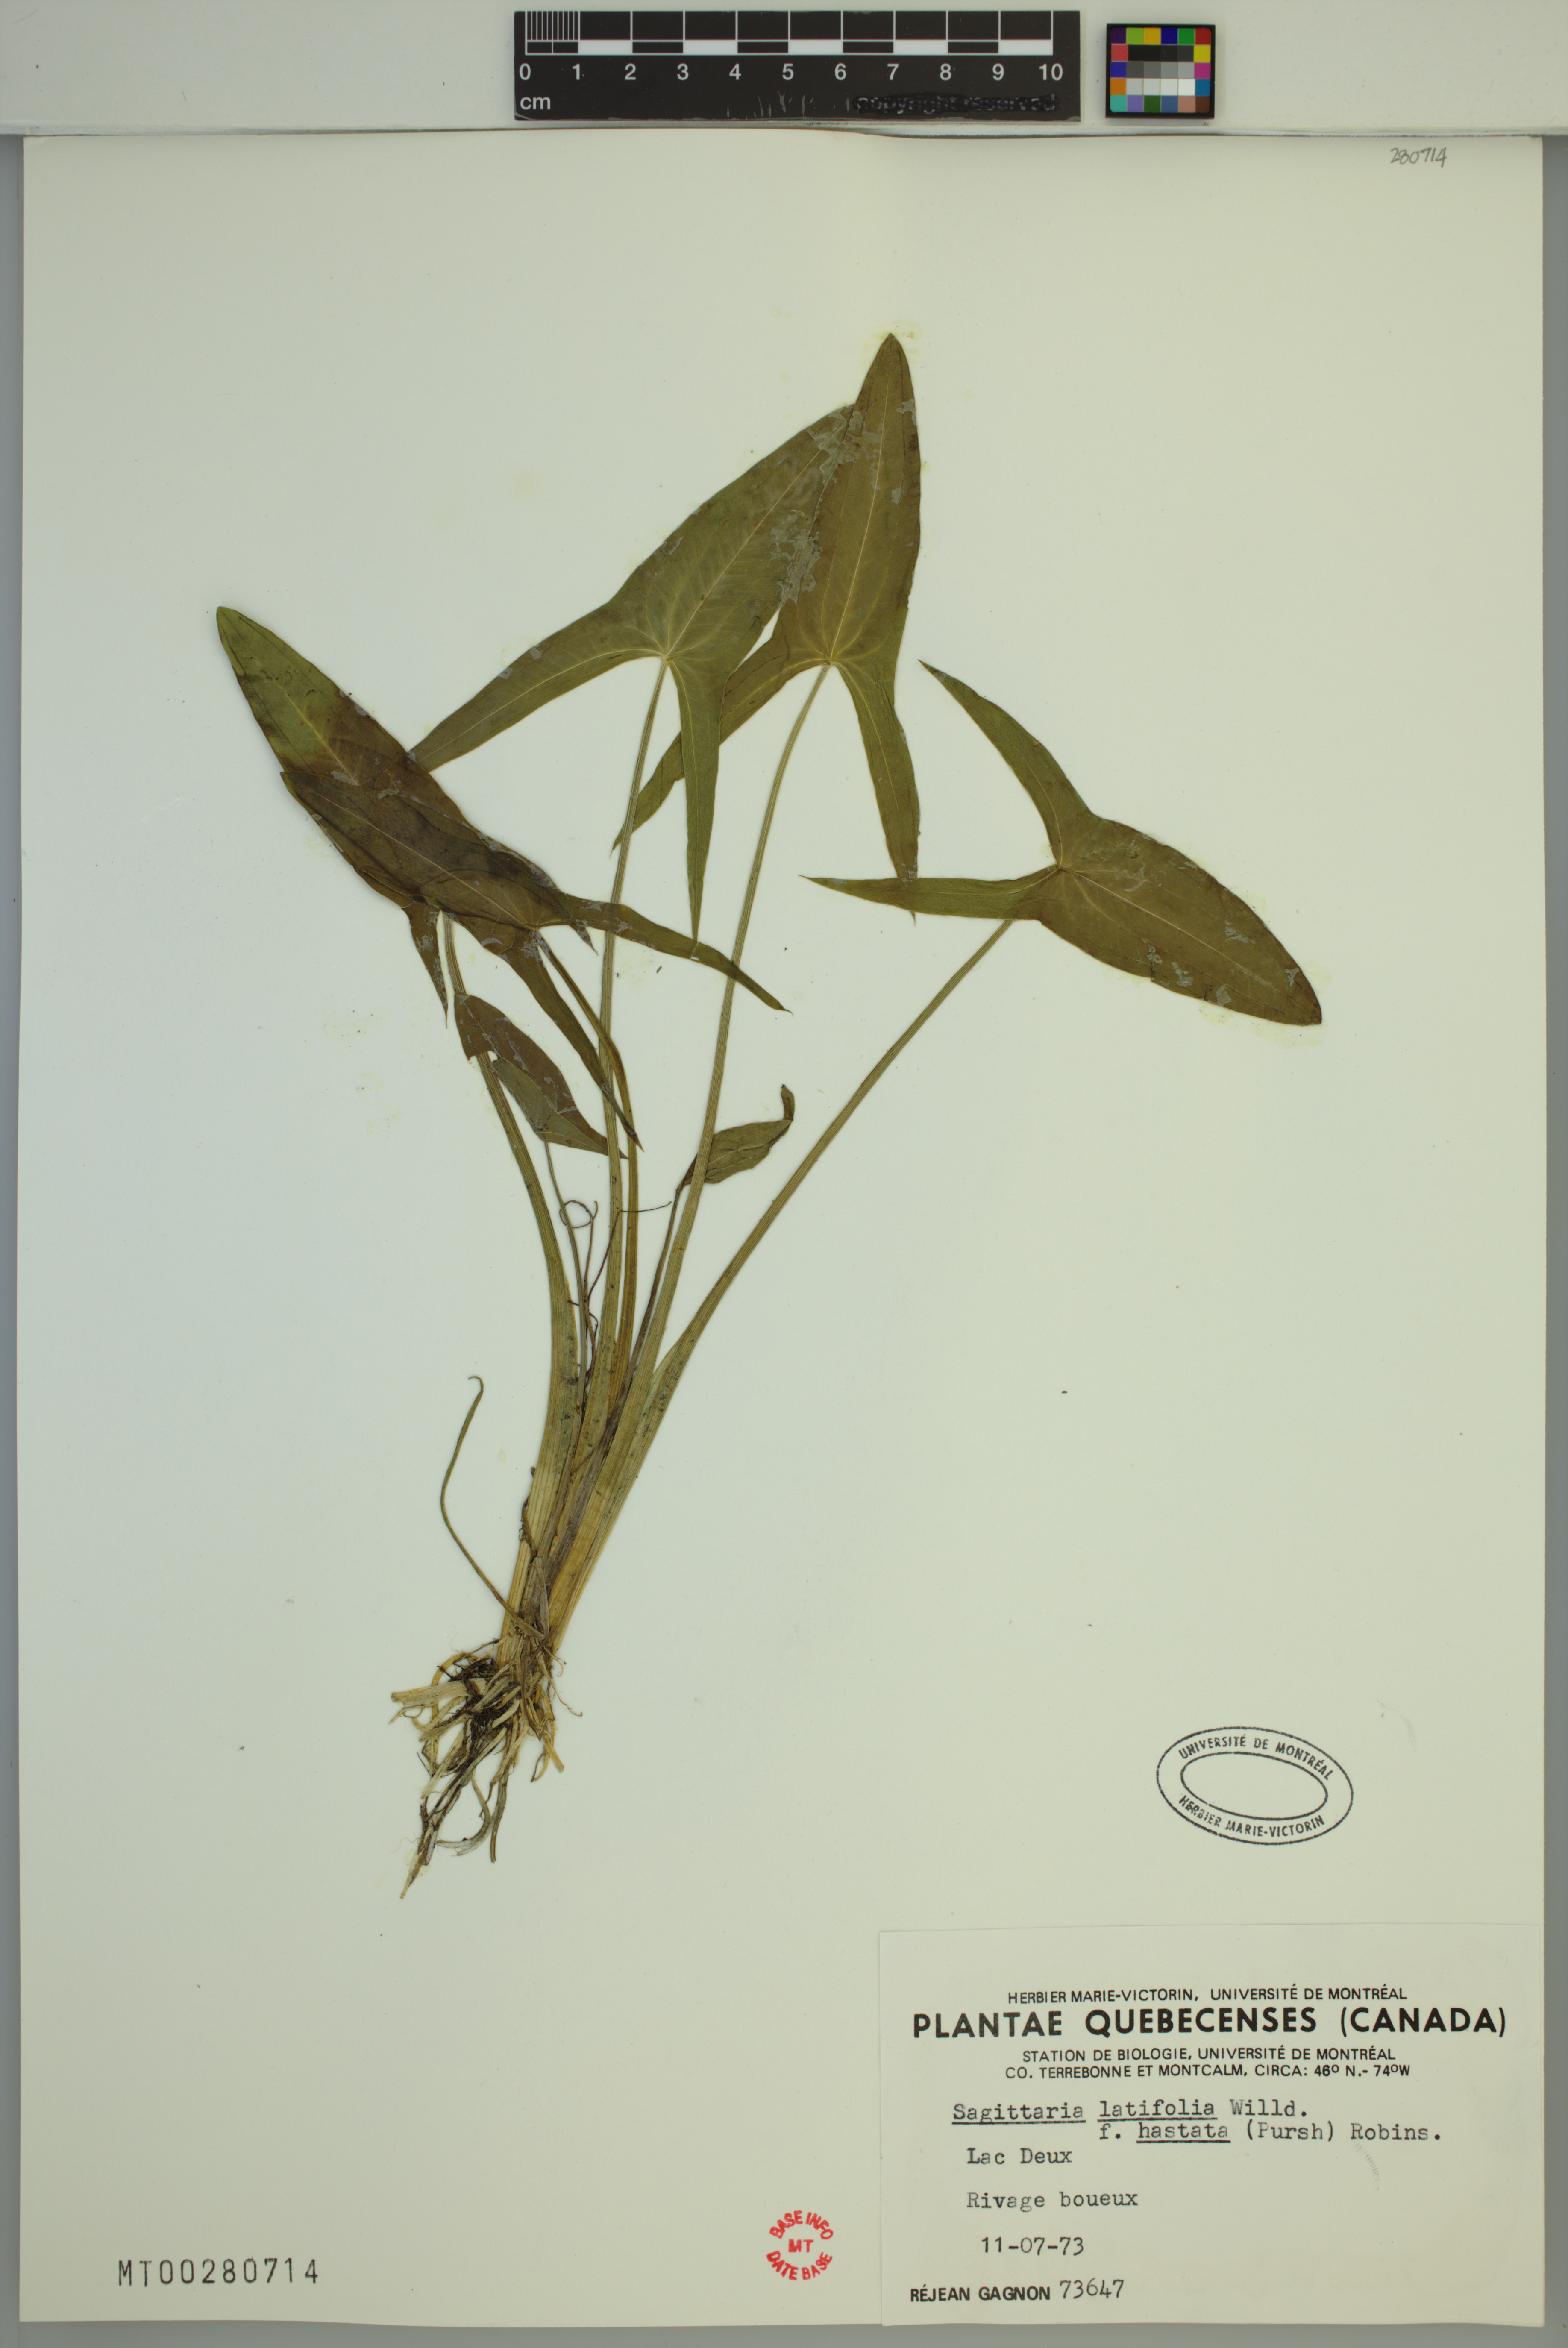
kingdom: Plantae
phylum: Tracheophyta
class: Liliopsida
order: Alismatales
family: Alismataceae
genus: Sagittaria
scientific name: Sagittaria latifolia
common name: Duck-potato
